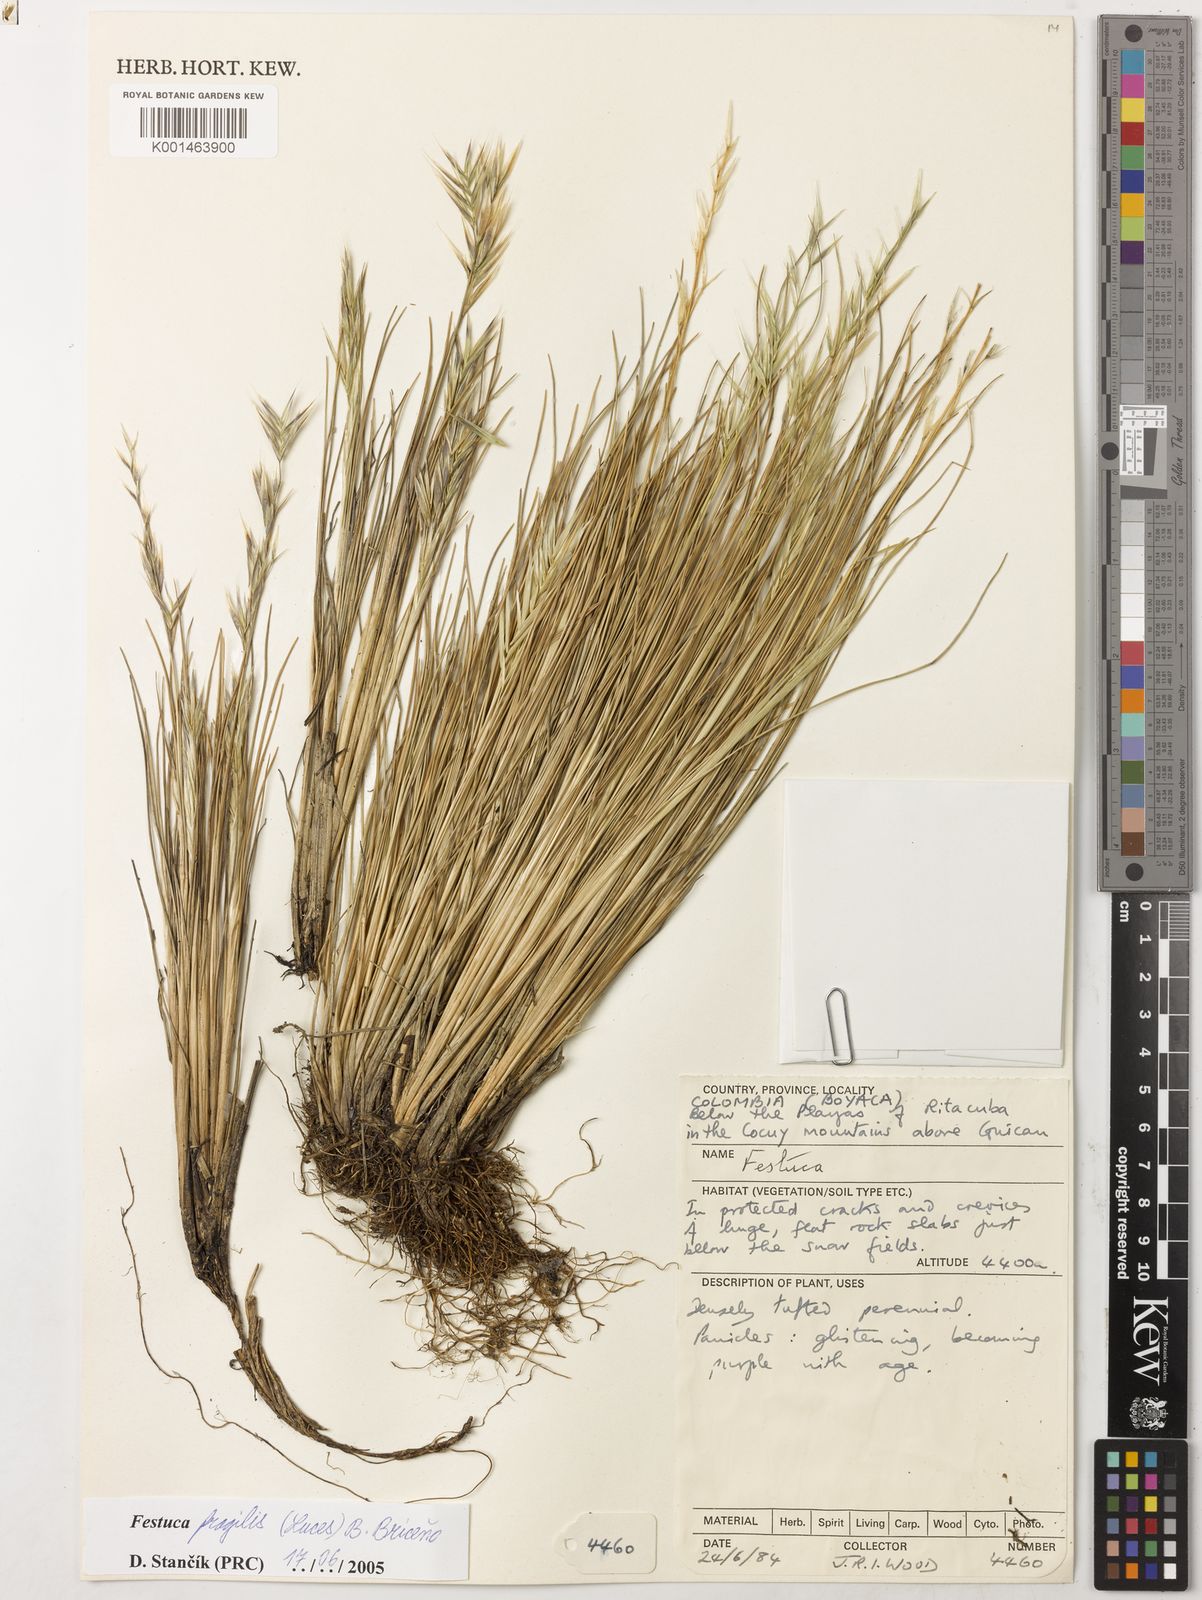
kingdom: Plantae
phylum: Tracheophyta
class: Liliopsida
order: Poales
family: Poaceae
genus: Festuca
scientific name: Festuca
